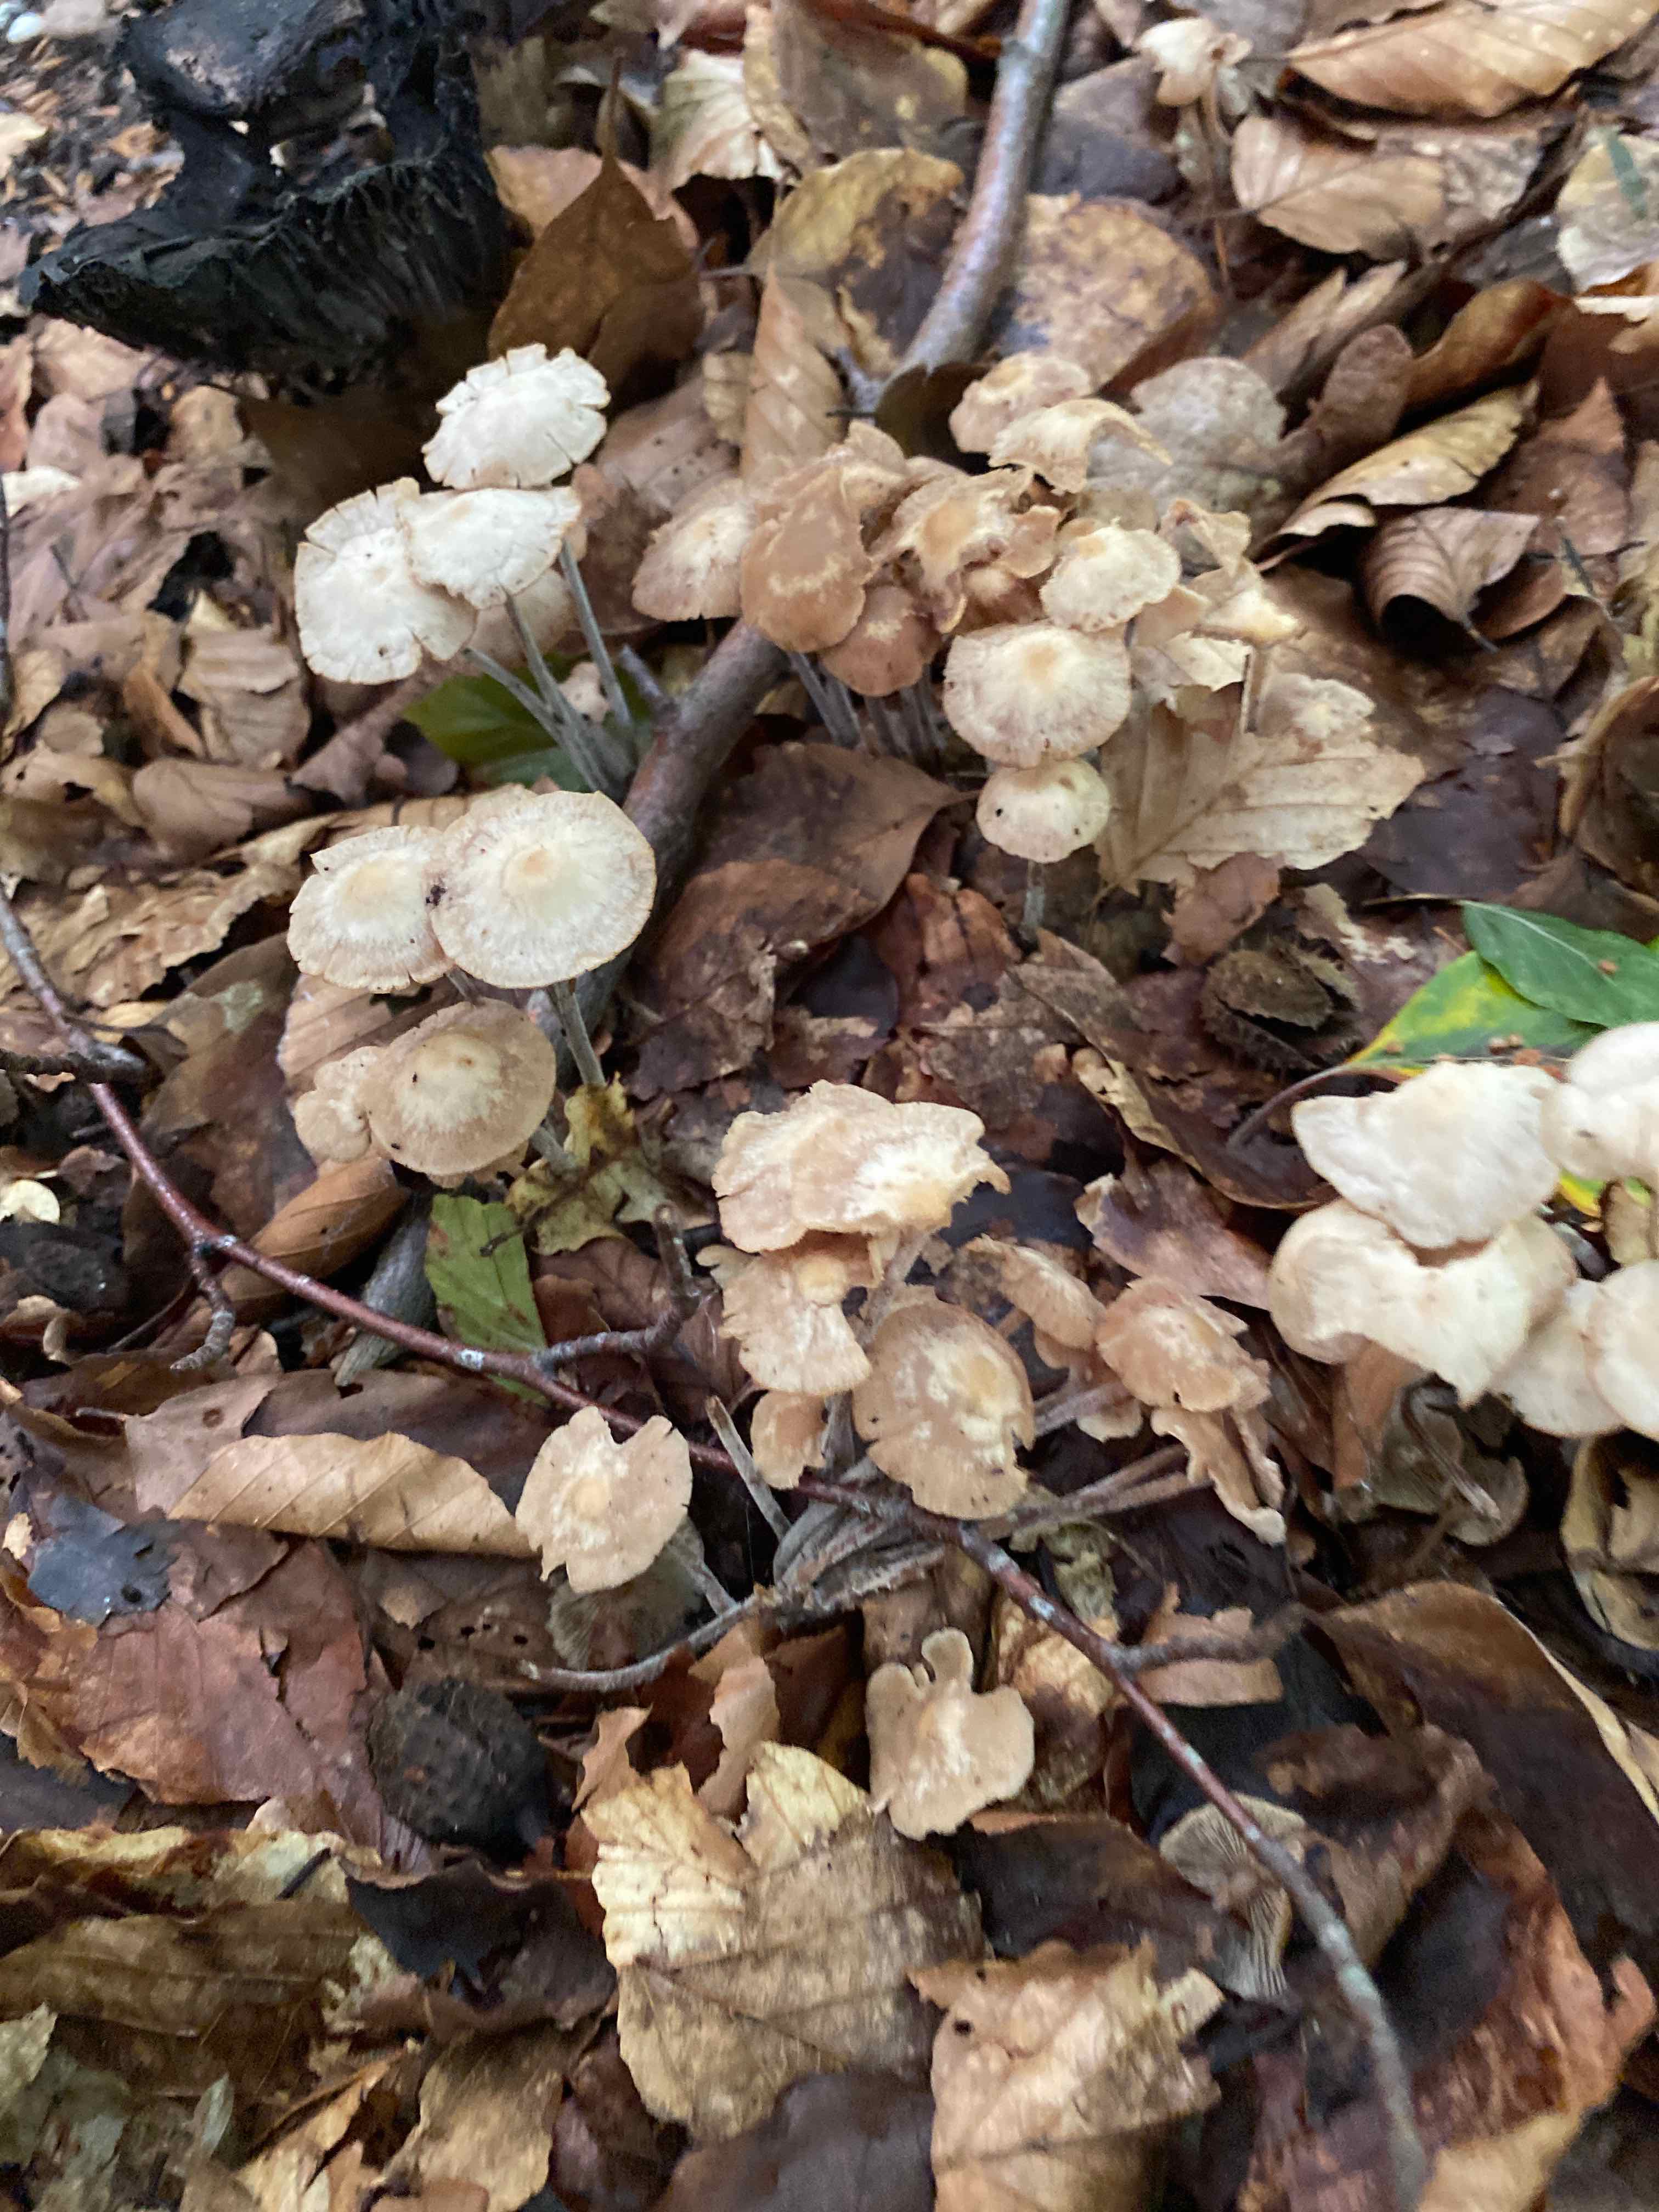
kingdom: Fungi
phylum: Basidiomycota
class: Agaricomycetes
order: Agaricales
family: Omphalotaceae
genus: Collybiopsis
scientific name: Collybiopsis confluens
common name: knippe-fladhat
